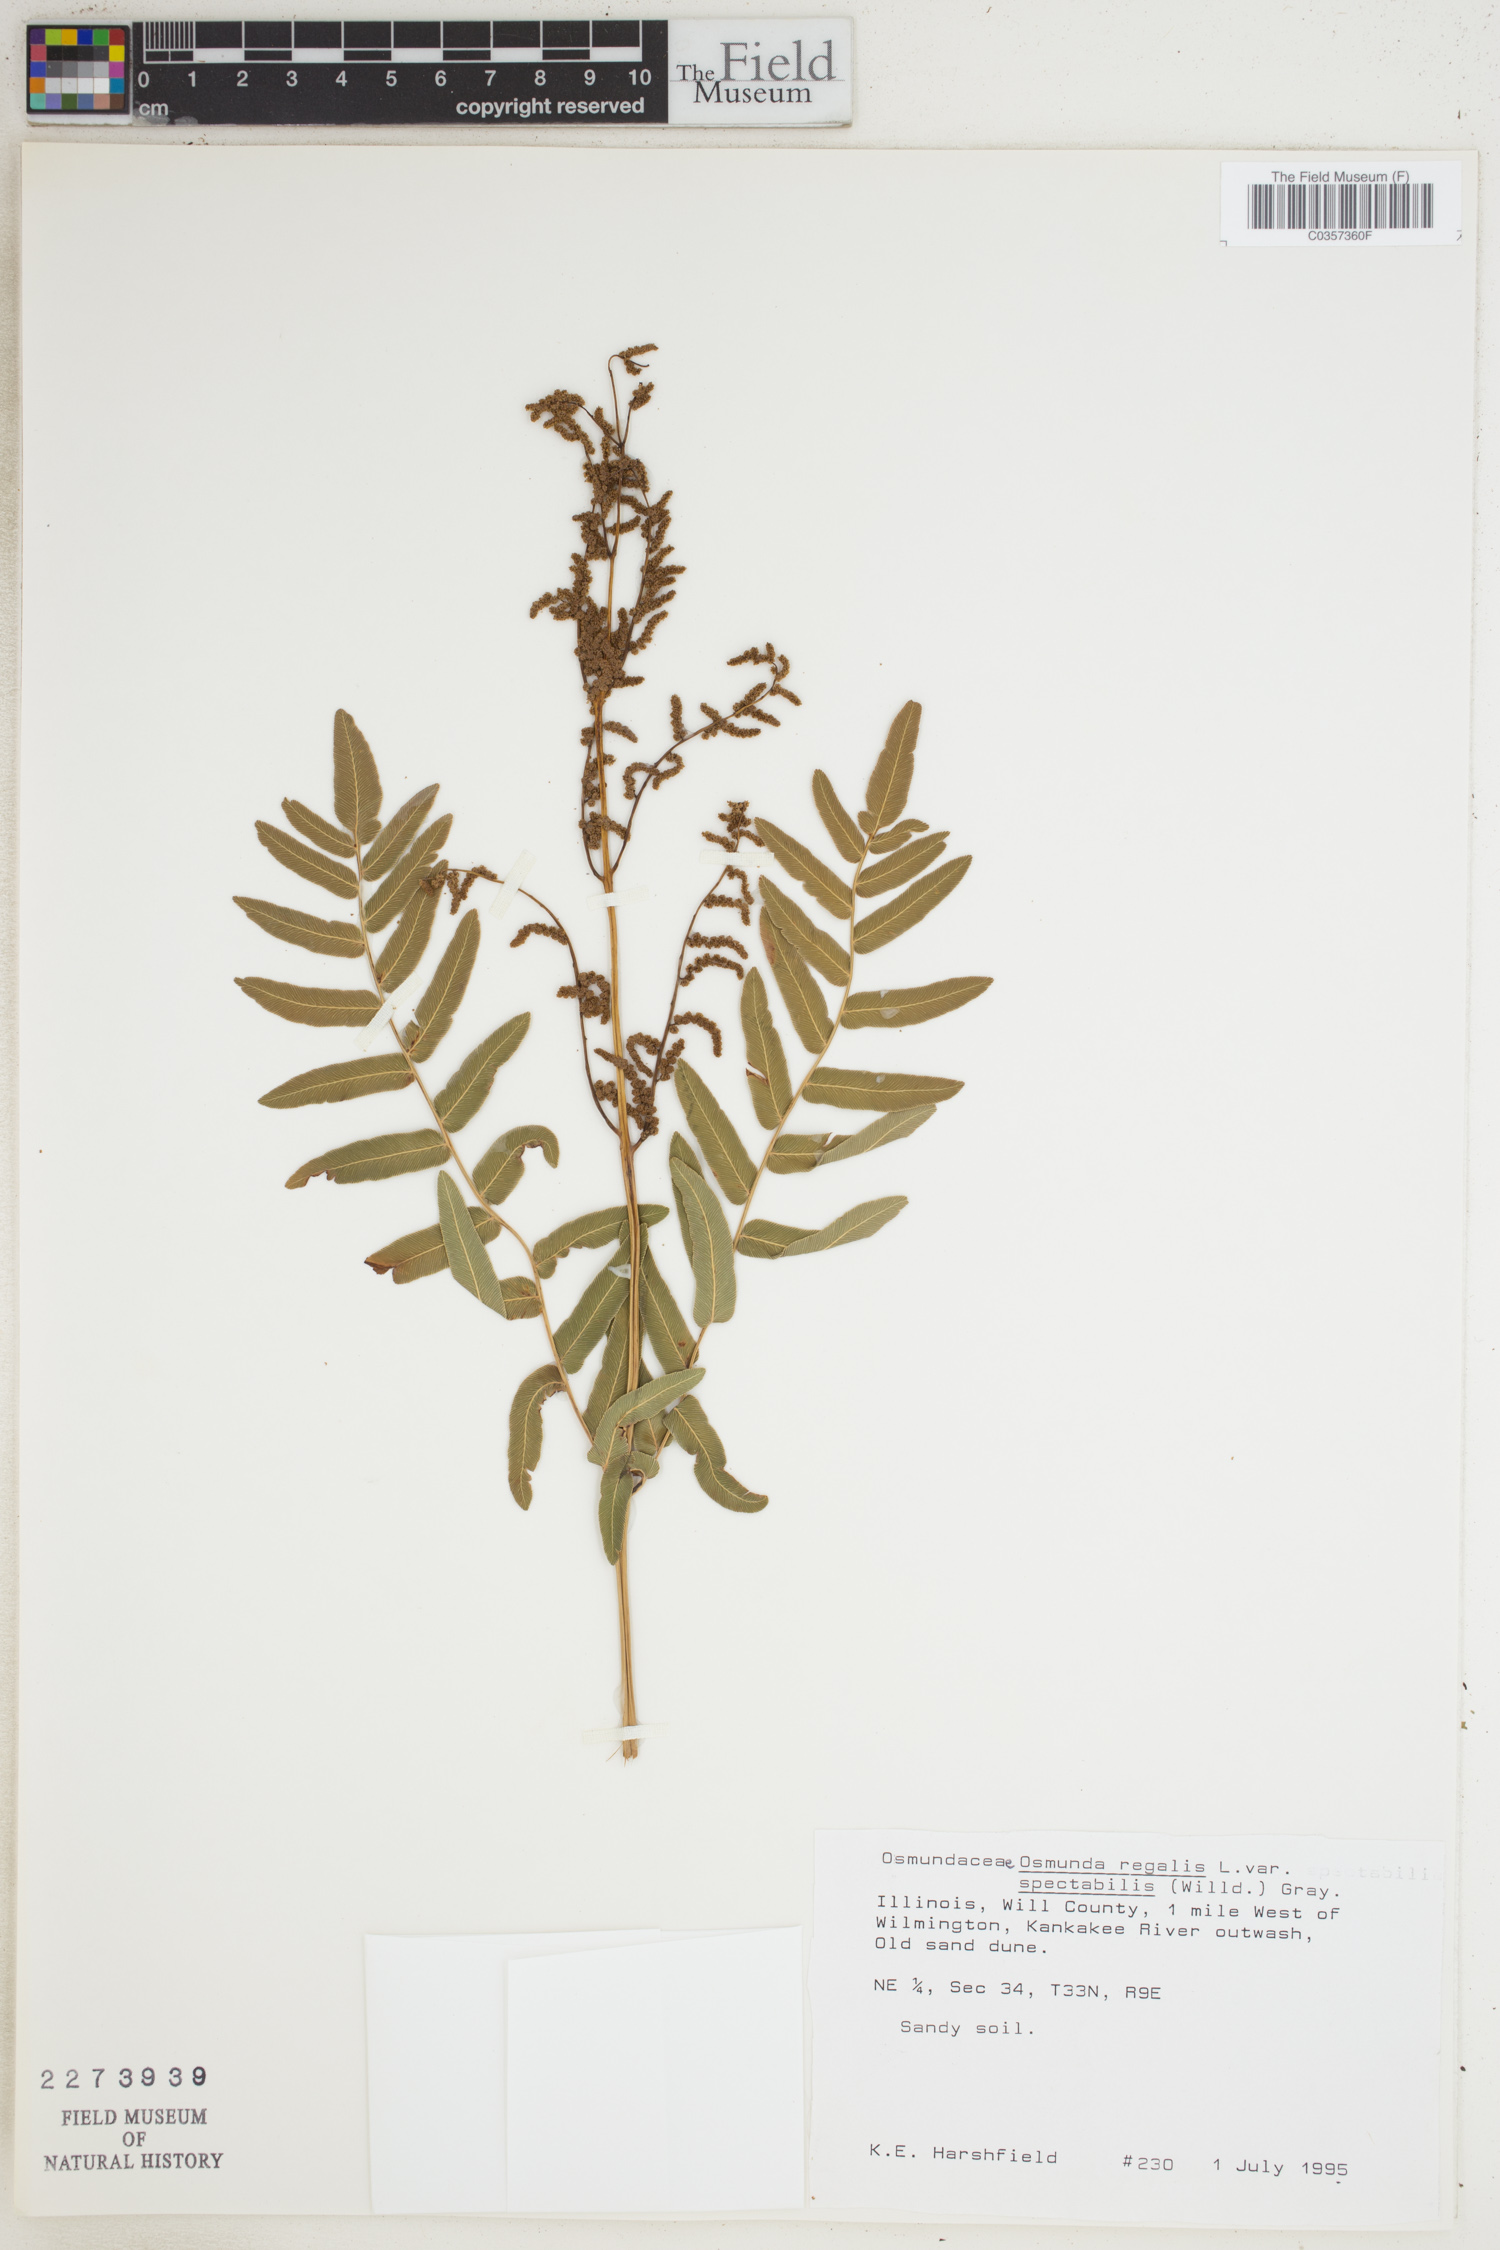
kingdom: Plantae
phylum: Tracheophyta
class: Polypodiopsida
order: Osmundales
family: Osmundaceae
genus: Osmunda
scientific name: Osmunda spectabilis
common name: American royal fern
